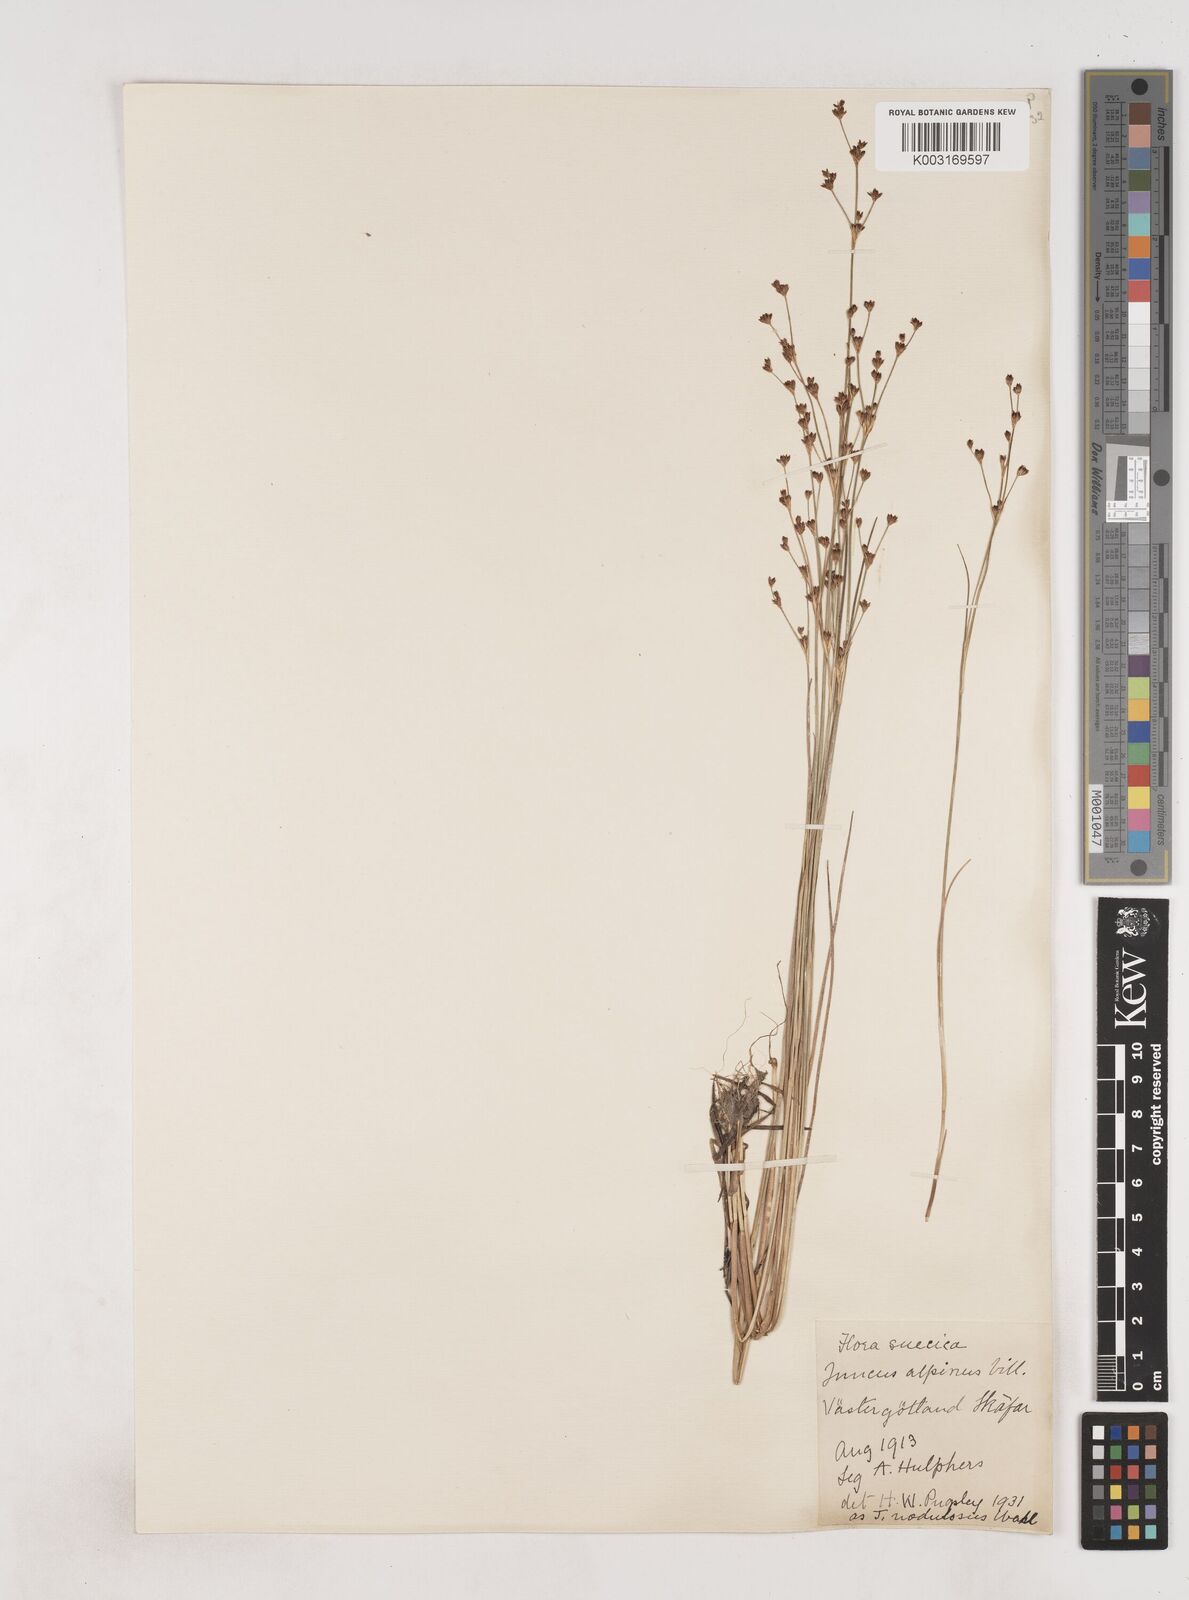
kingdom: Plantae
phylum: Tracheophyta
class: Liliopsida
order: Poales
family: Juncaceae
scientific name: Juncaceae
